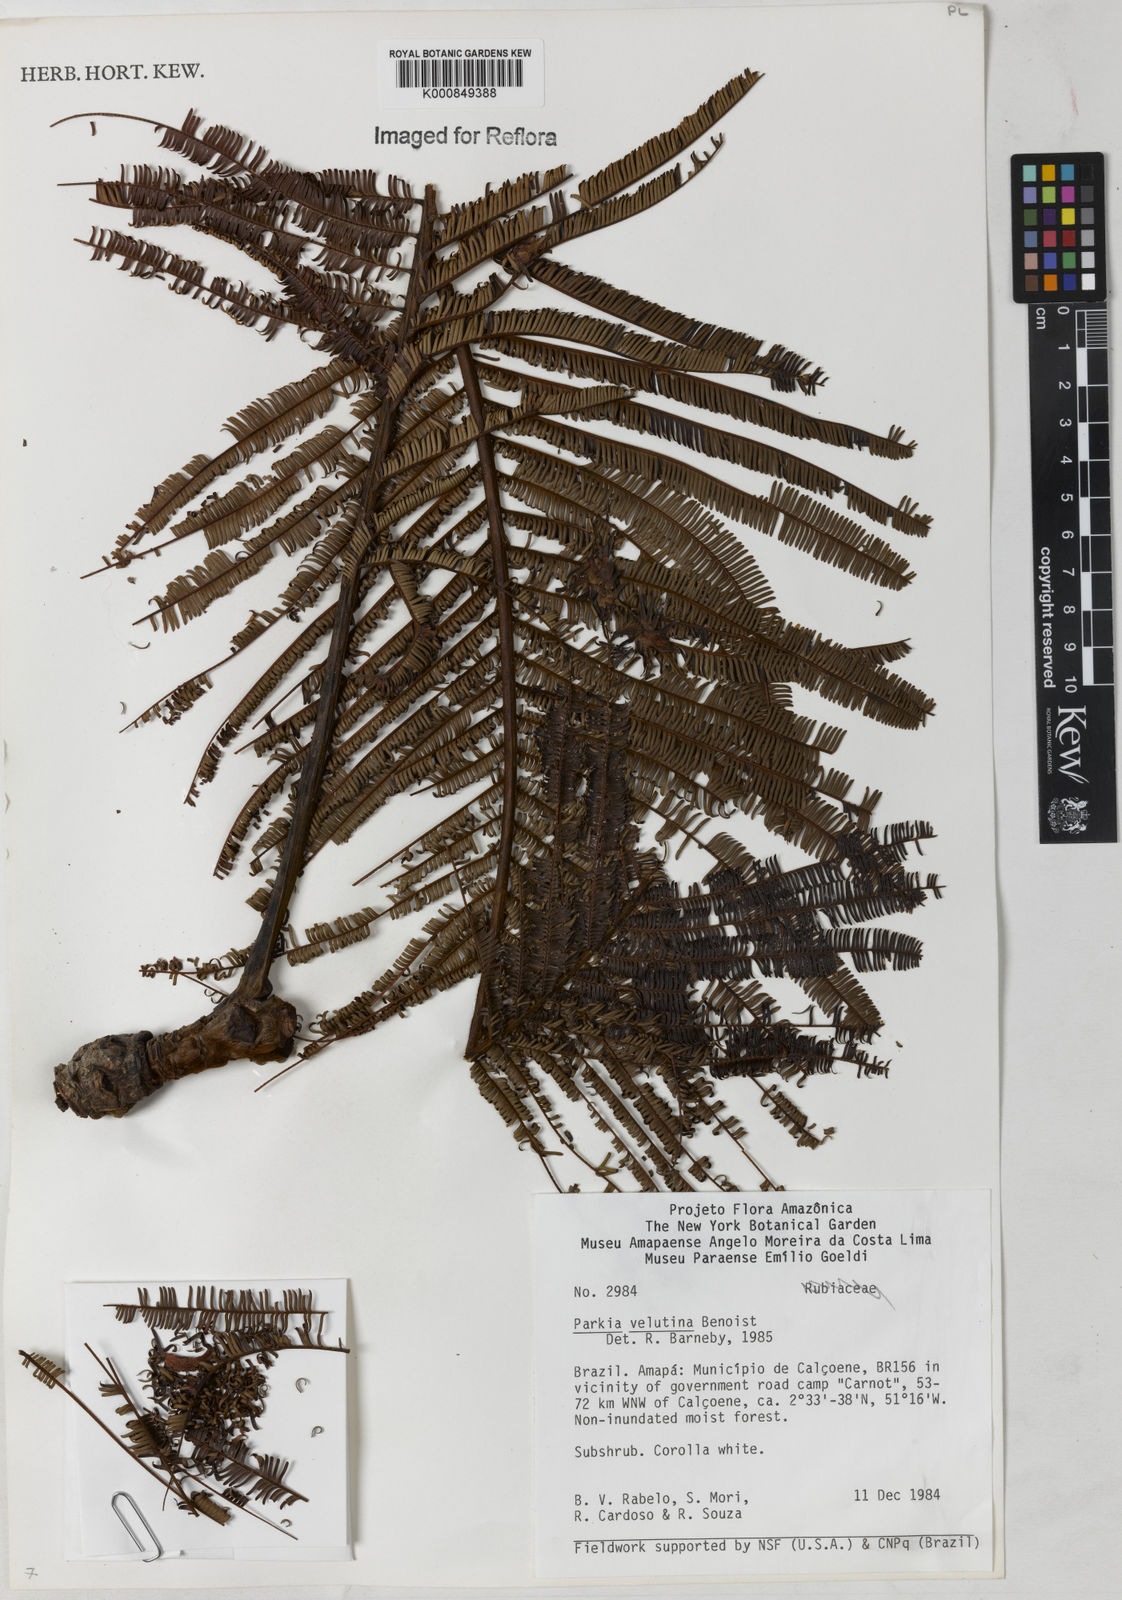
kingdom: Plantae
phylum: Tracheophyta
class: Magnoliopsida
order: Fabales
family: Fabaceae
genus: Parkia
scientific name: Parkia velutina
